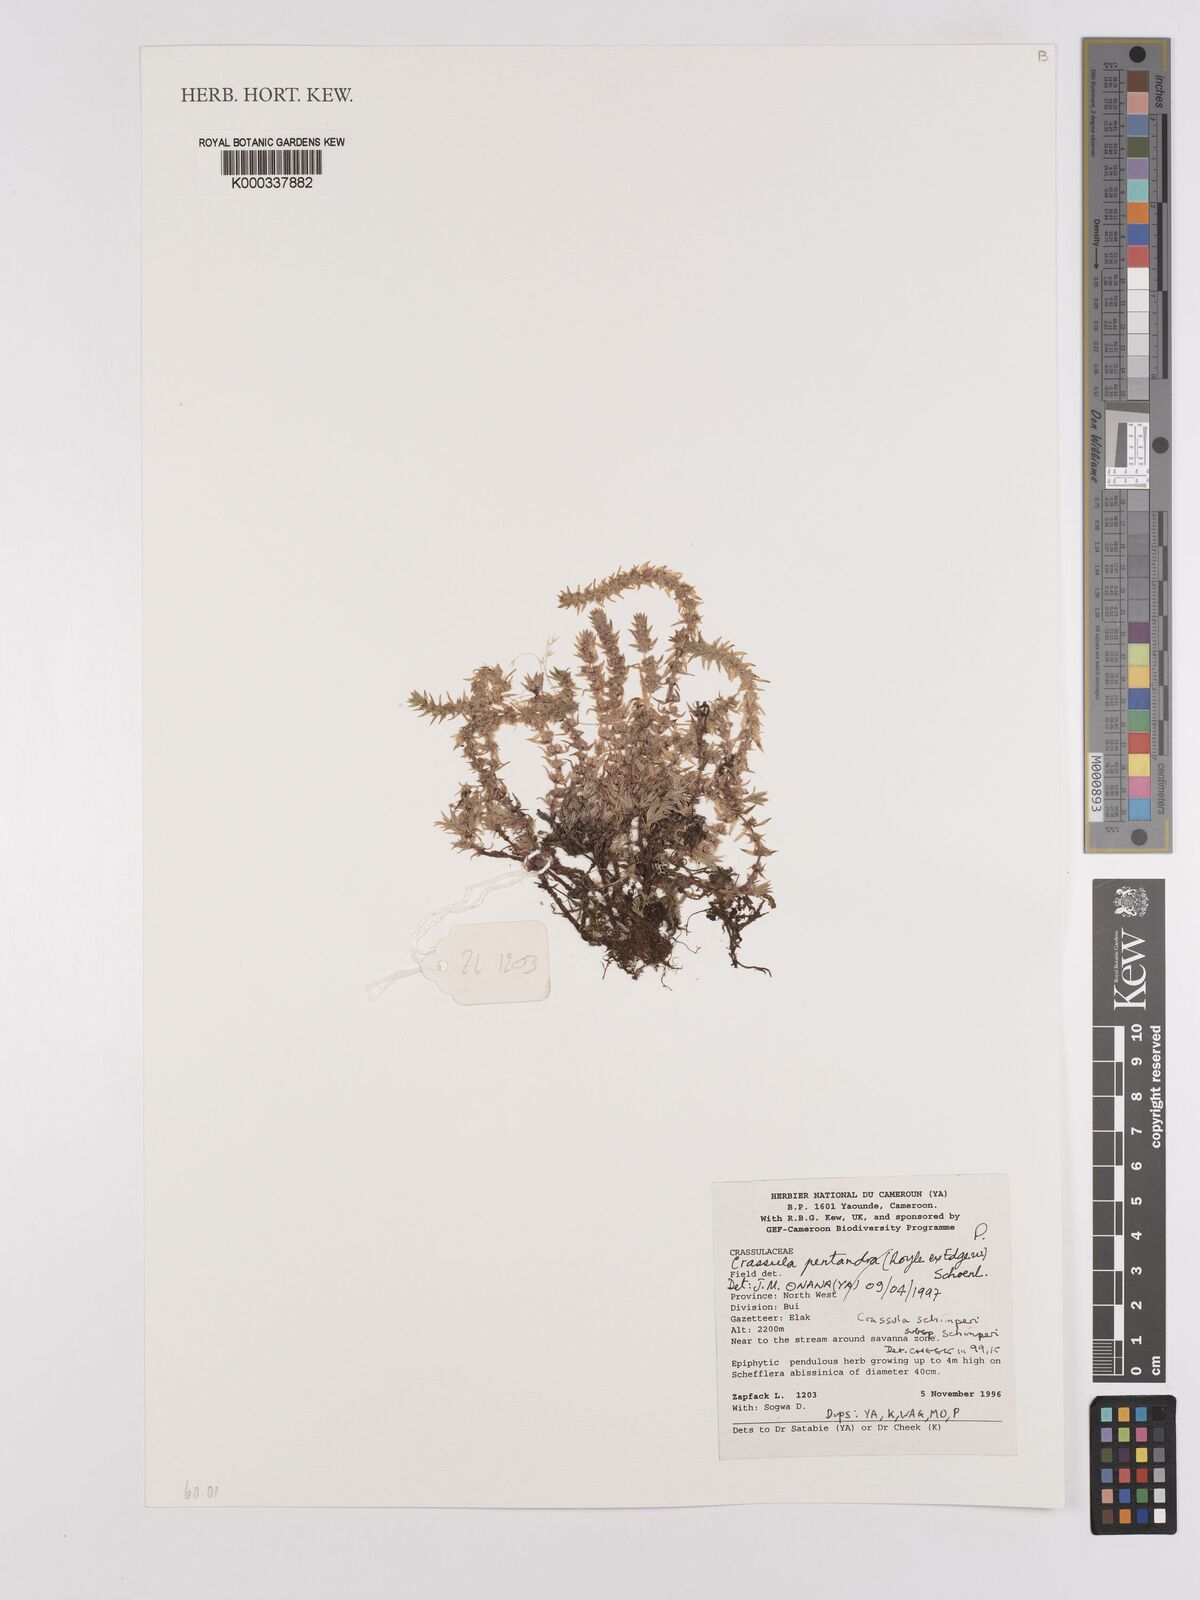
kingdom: Plantae
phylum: Tracheophyta
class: Magnoliopsida
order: Saxifragales
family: Crassulaceae
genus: Crassula
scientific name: Crassula schimperi
